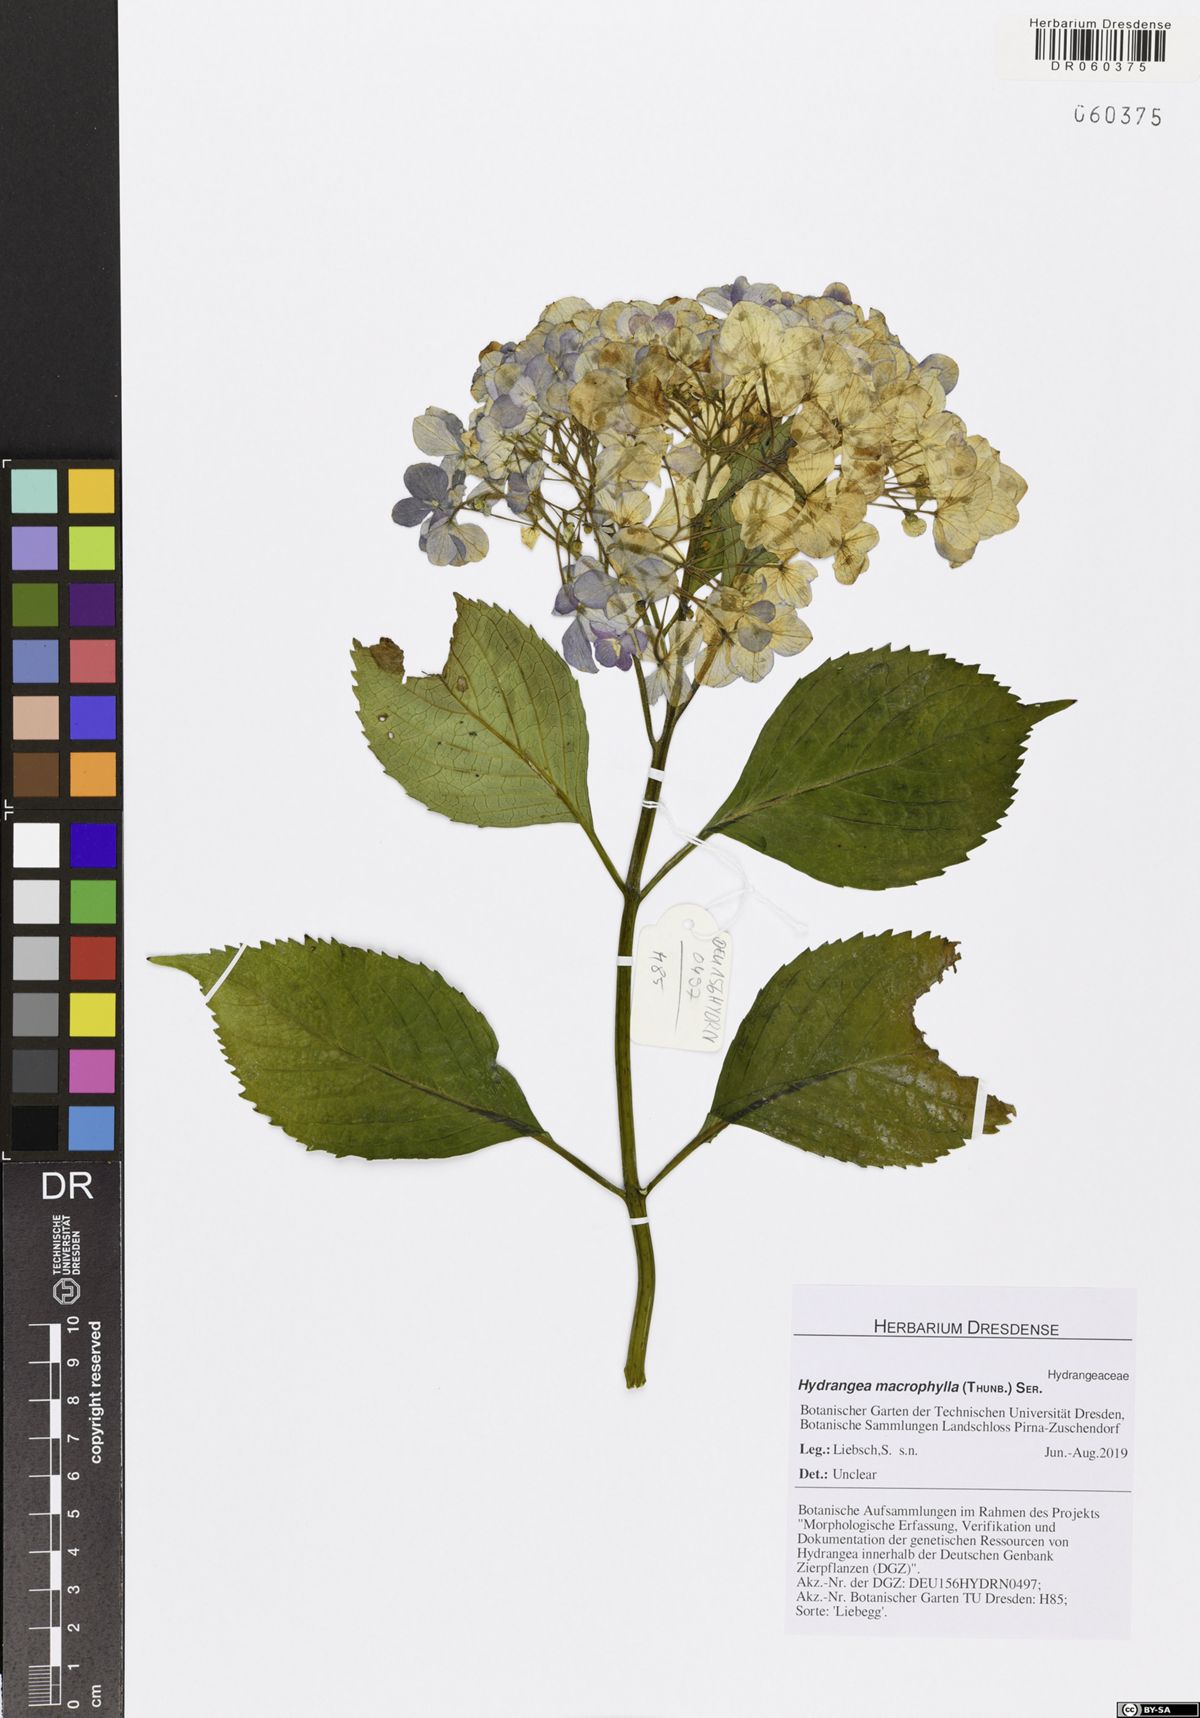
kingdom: Plantae
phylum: Tracheophyta
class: Magnoliopsida
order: Cornales
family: Hydrangeaceae
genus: Hydrangea
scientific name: Hydrangea macrophylla
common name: Hydrangea
